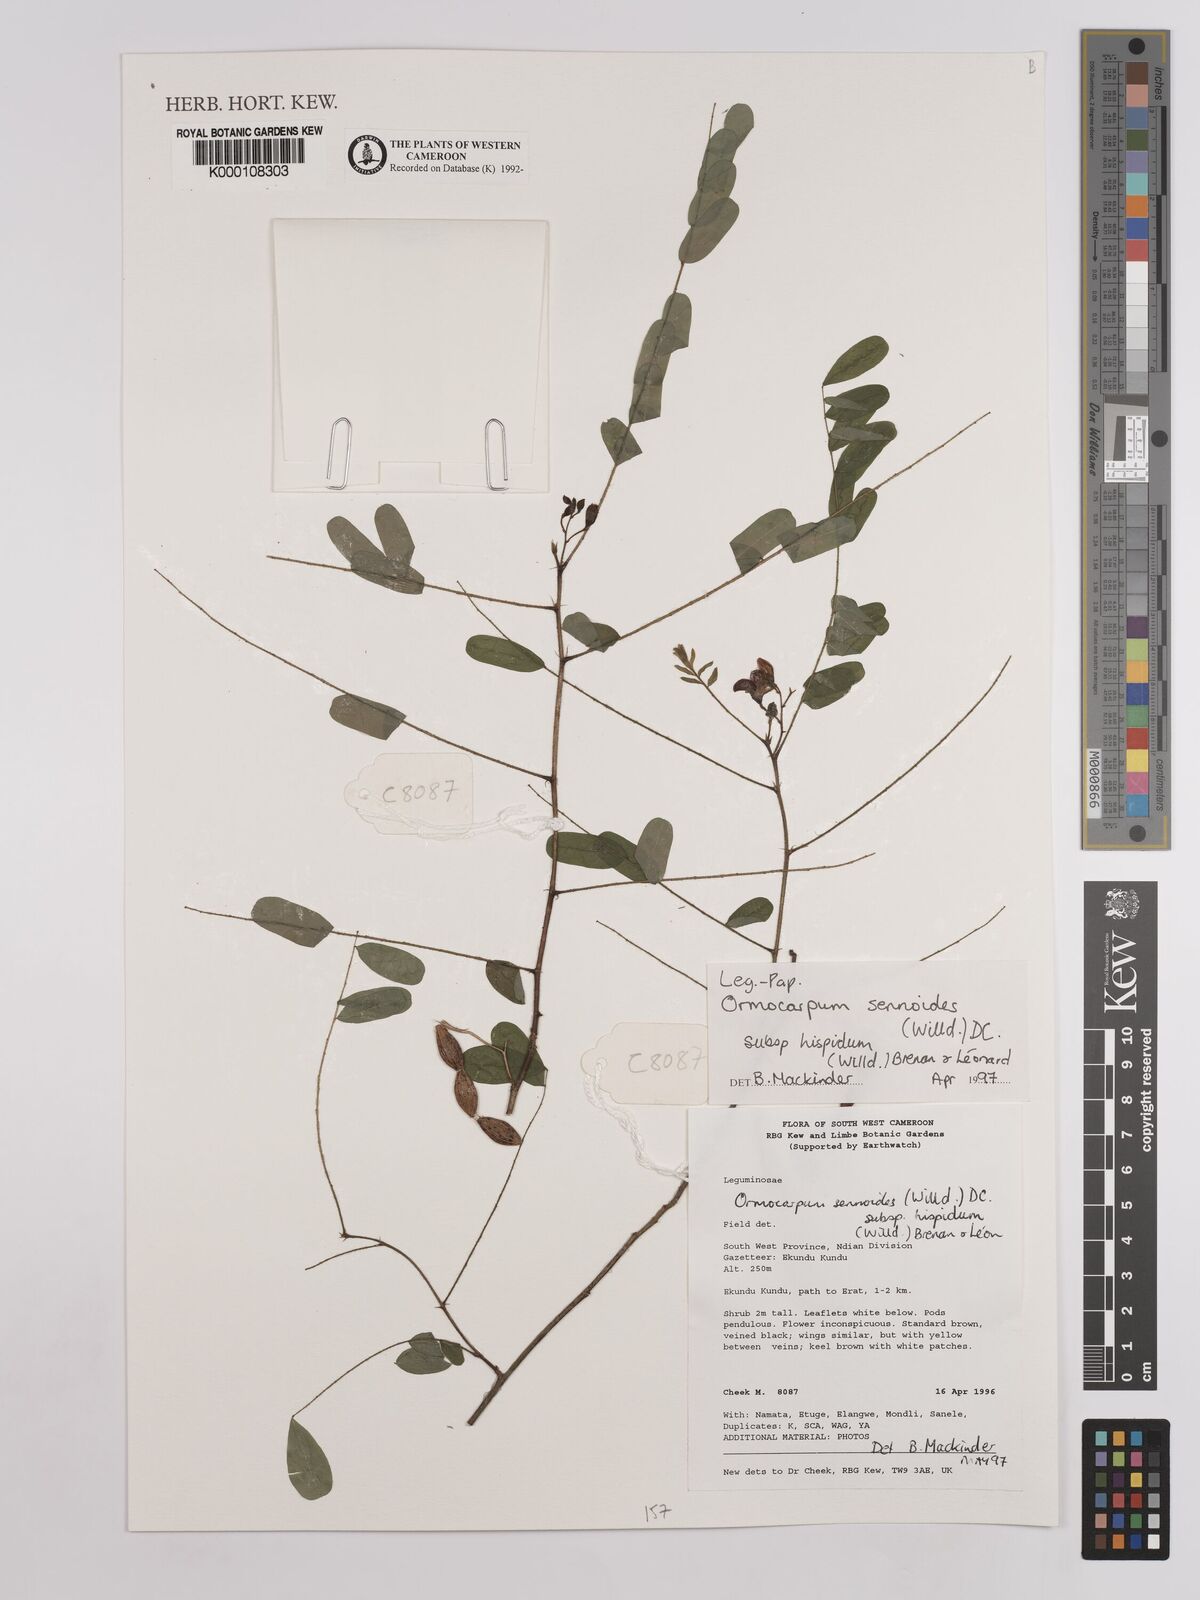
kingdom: Plantae
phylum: Tracheophyta
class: Magnoliopsida
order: Fabales
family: Fabaceae
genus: Ormocarpum
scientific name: Ormocarpum sennoides
